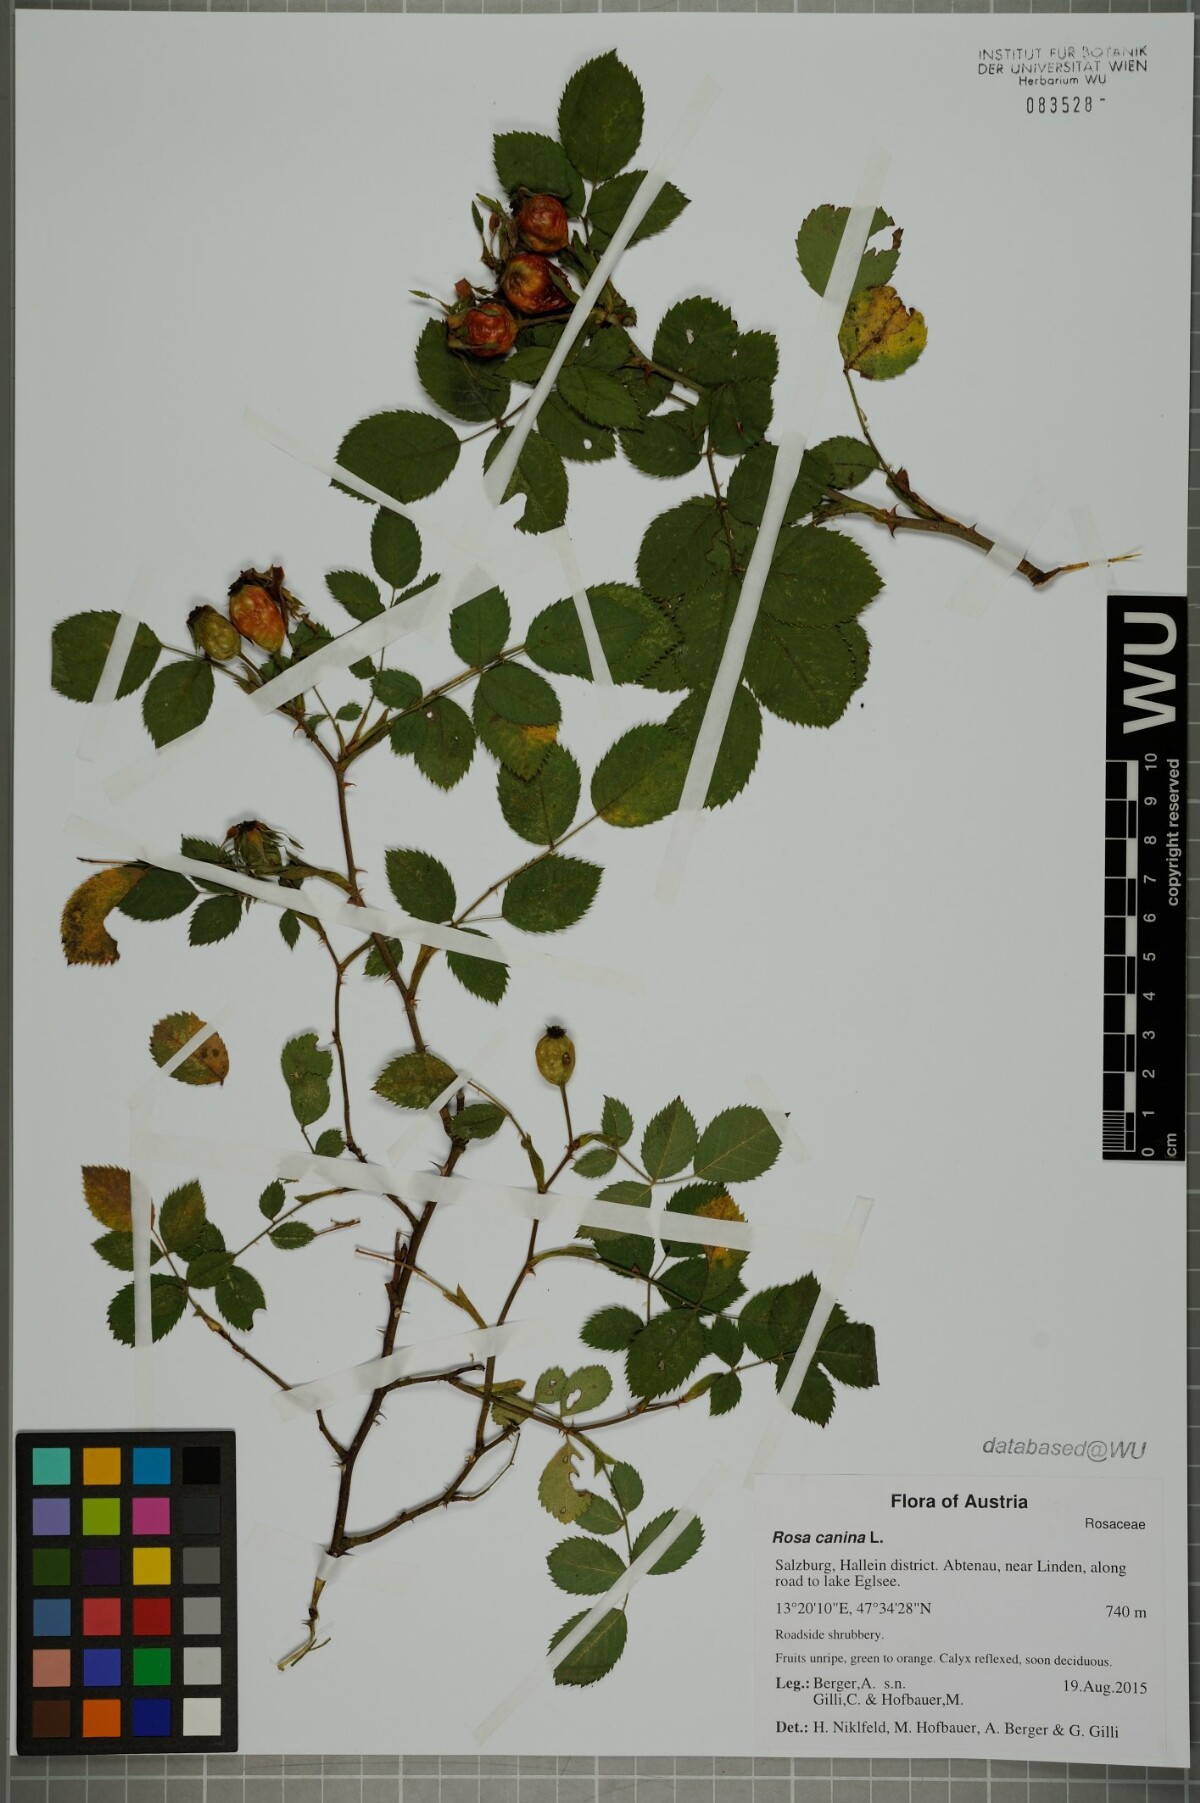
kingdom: Plantae
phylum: Tracheophyta
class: Magnoliopsida
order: Rosales
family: Rosaceae
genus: Rosa
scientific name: Rosa canina
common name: Dog rose
